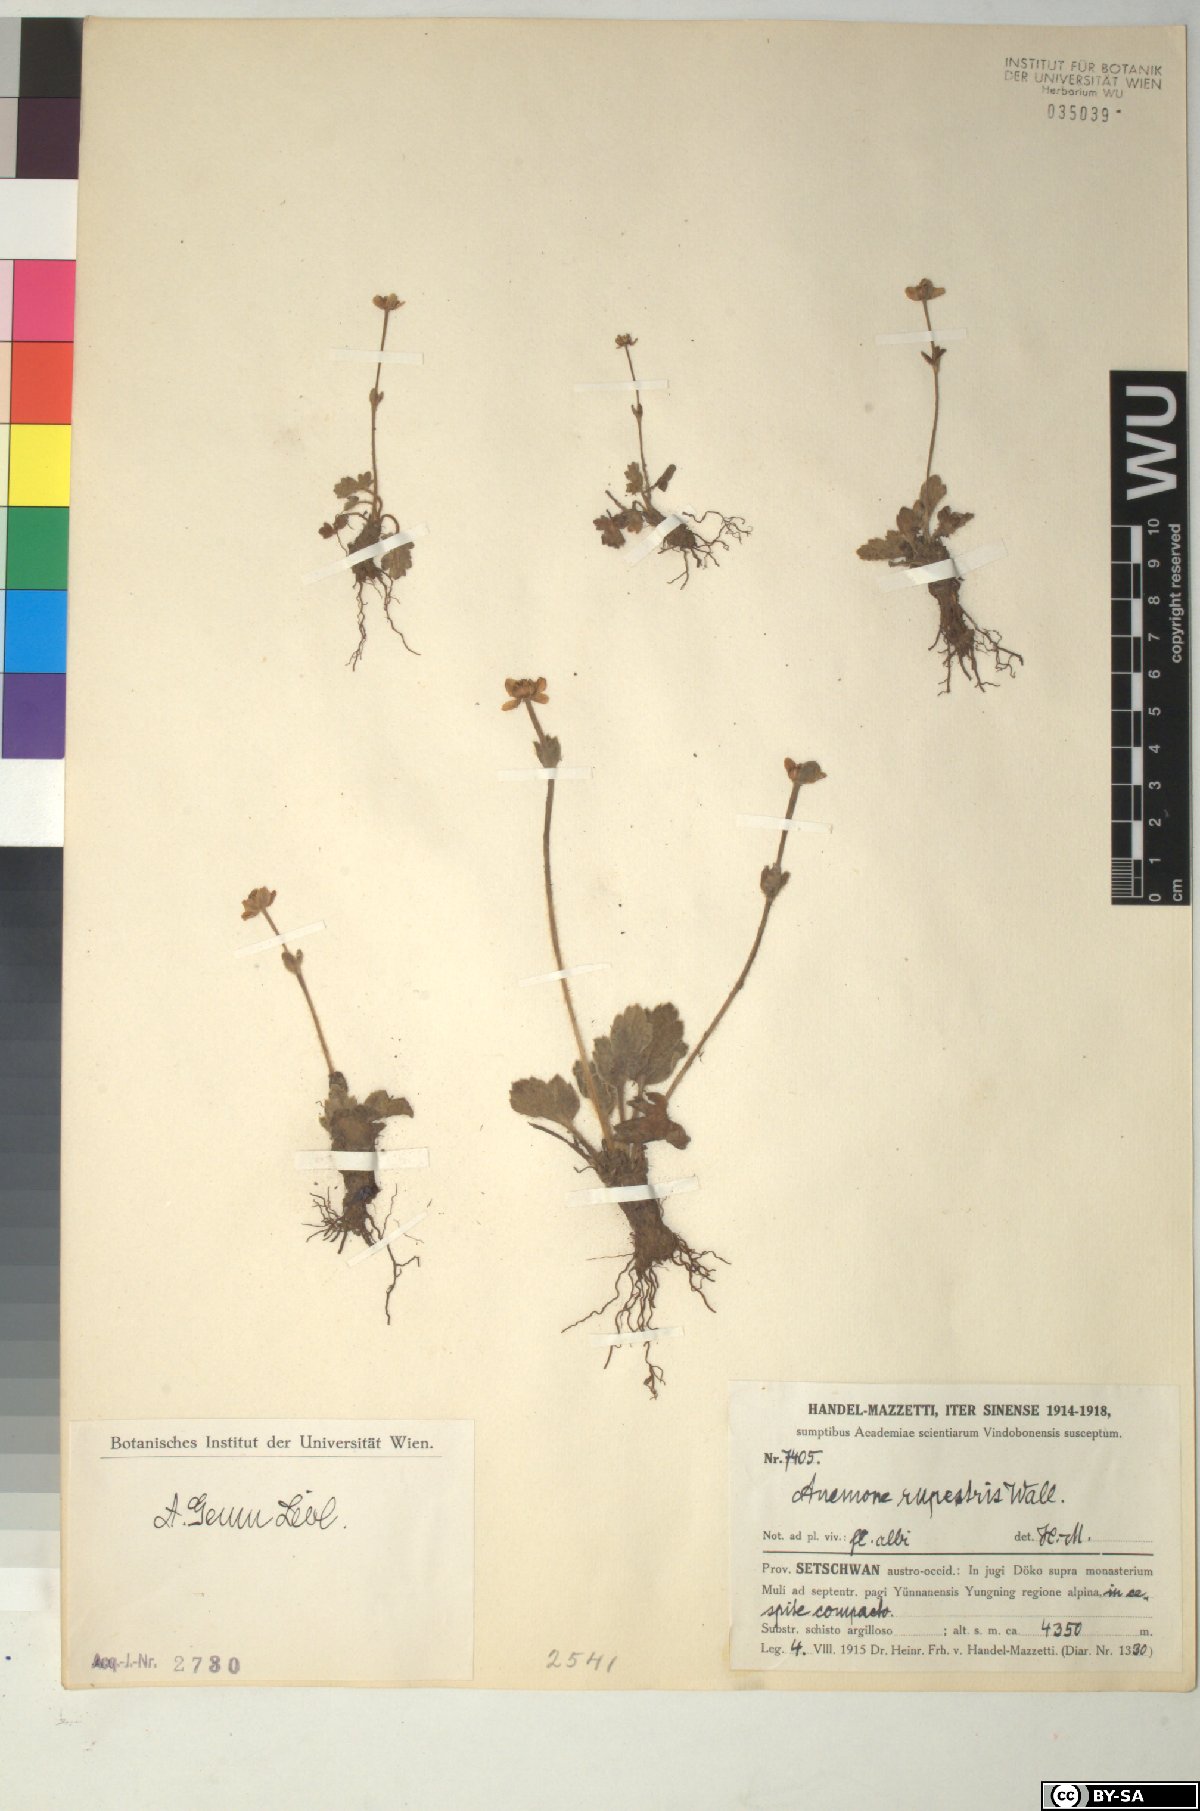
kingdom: Plantae
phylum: Tracheophyta
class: Magnoliopsida
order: Ranunculales
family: Ranunculaceae
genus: Anemonastrum
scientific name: Anemonastrum geum
